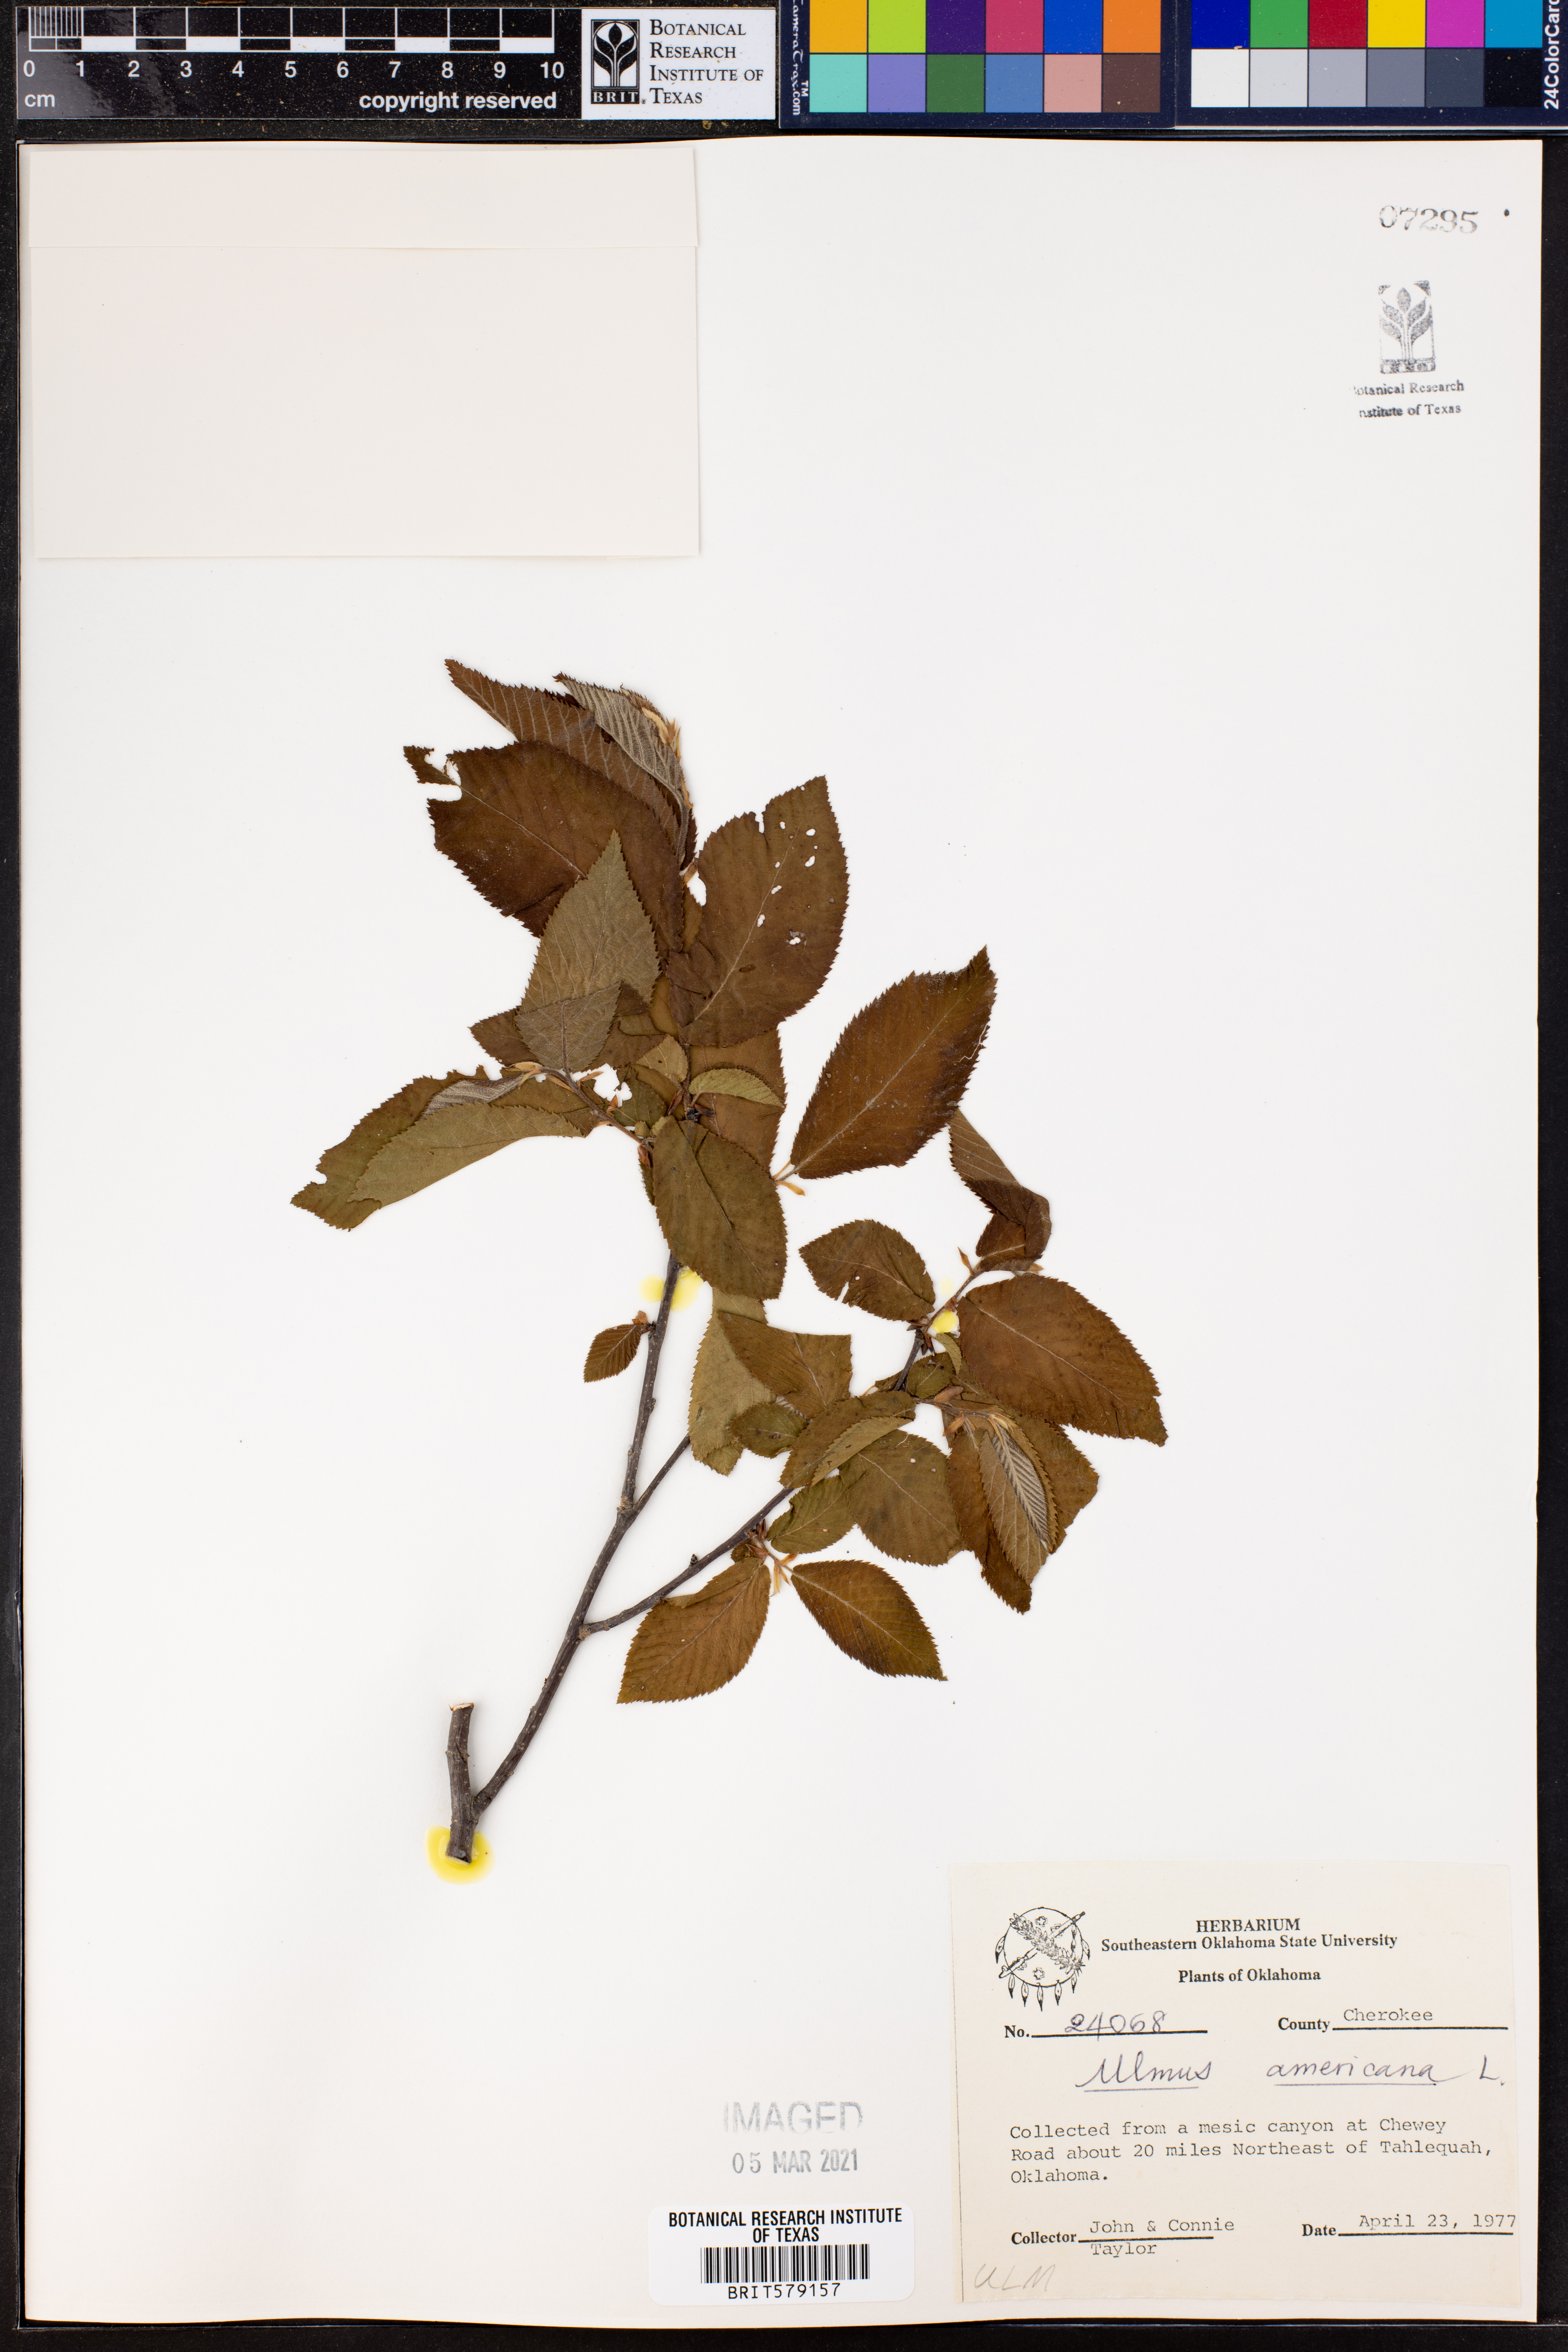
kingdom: Plantae
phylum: Tracheophyta
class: Magnoliopsida
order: Rosales
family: Ulmaceae
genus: Ulmus
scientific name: Ulmus americana
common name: American elm
